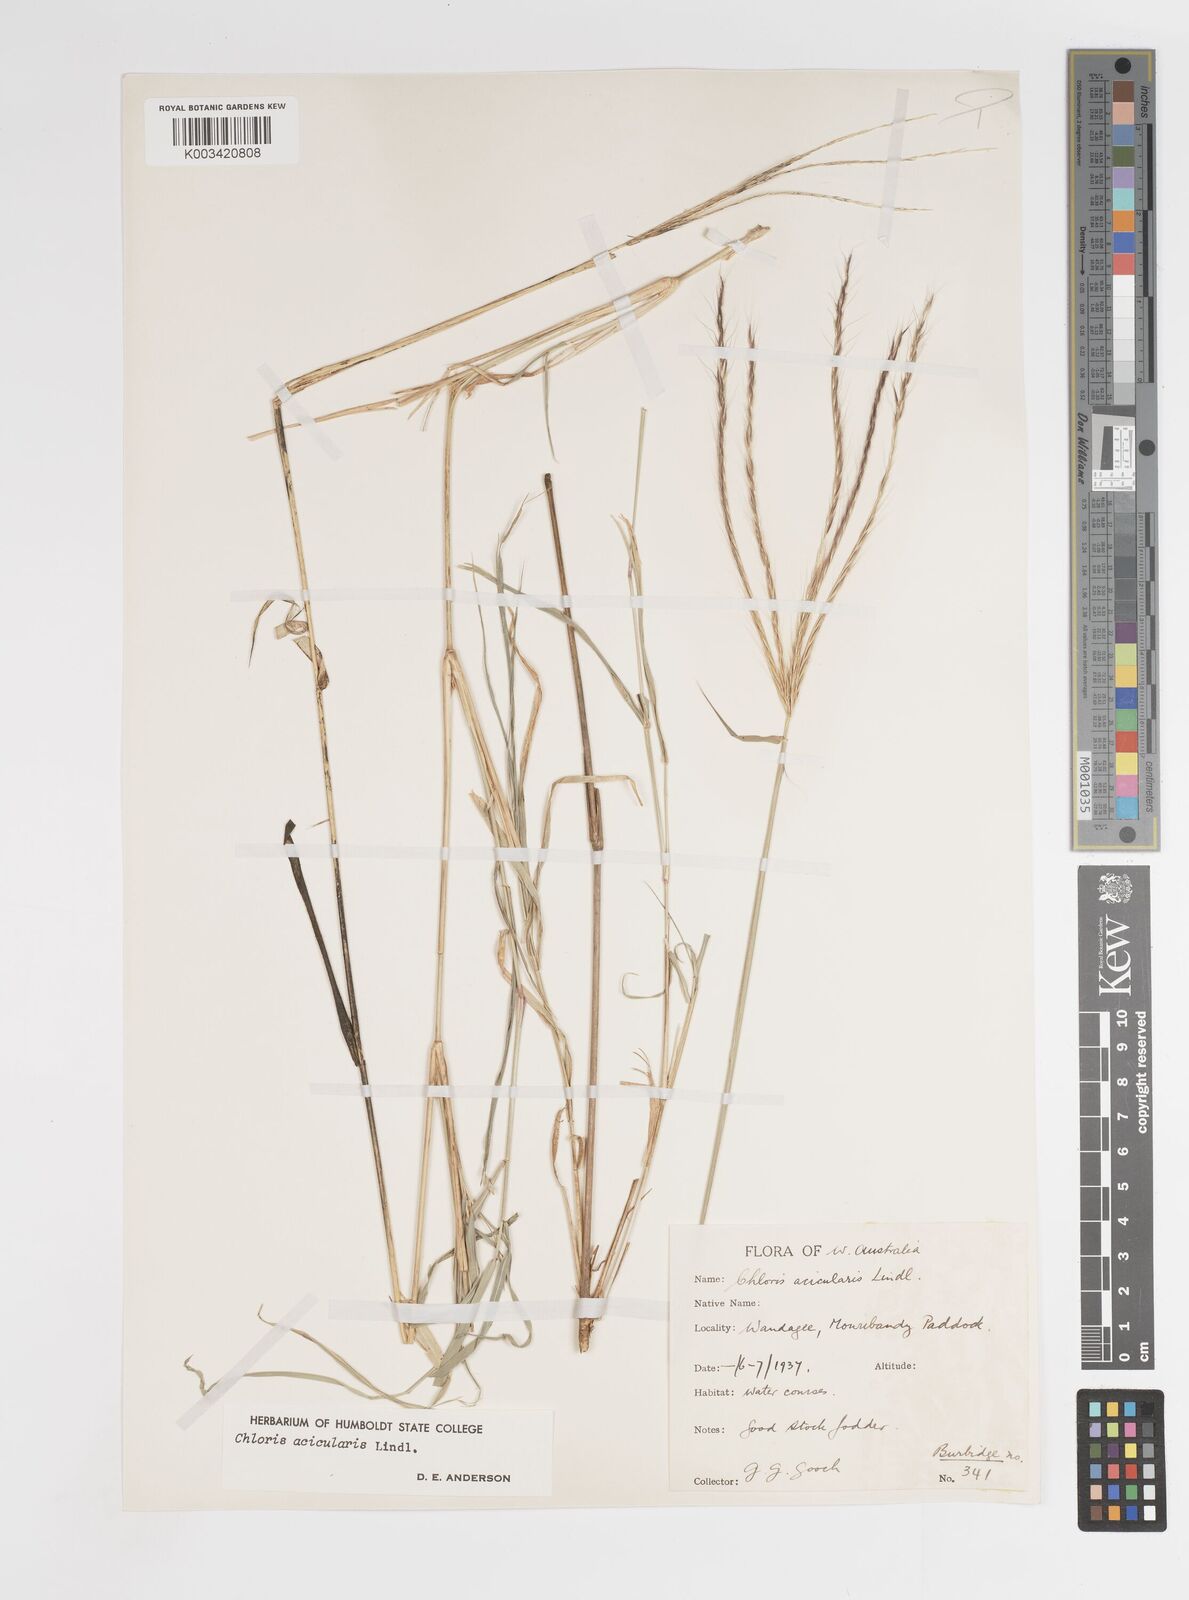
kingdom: Plantae
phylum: Tracheophyta
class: Liliopsida
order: Poales
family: Poaceae
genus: Enteropogon
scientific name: Enteropogon acicularis
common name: Curly windmill grass
